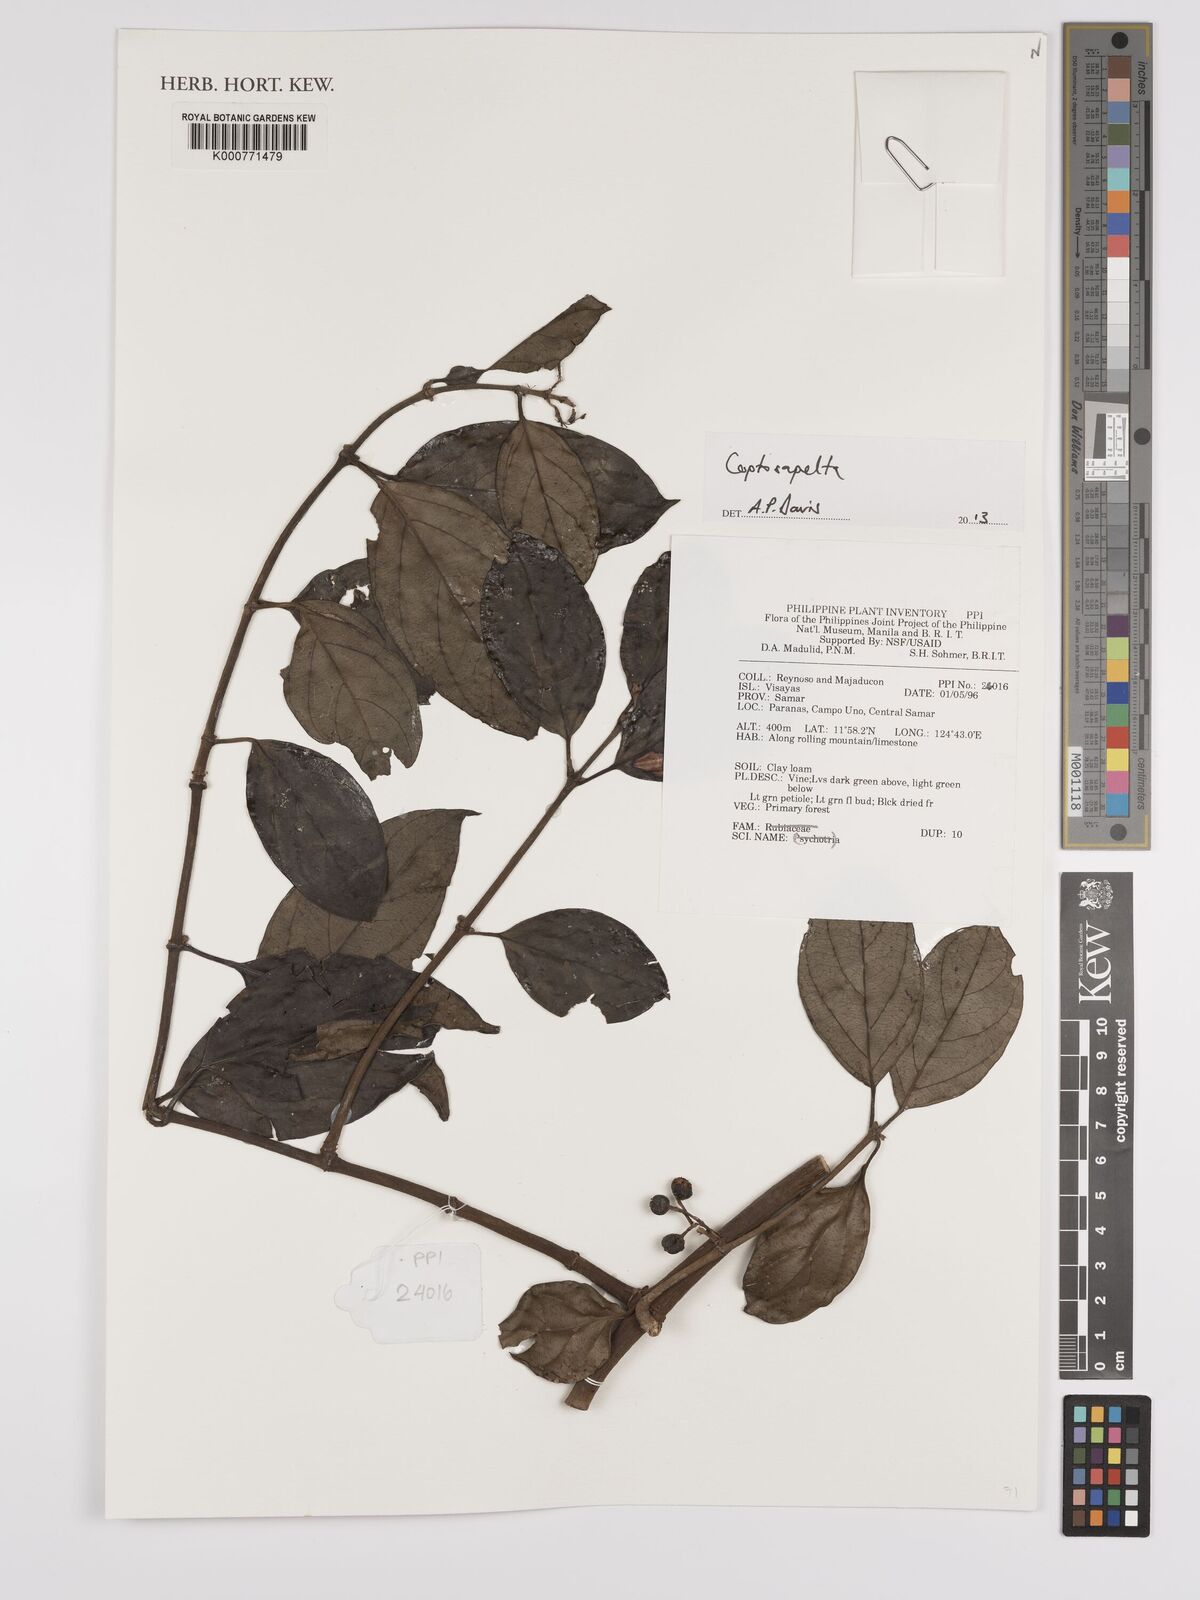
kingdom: Plantae
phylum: Tracheophyta
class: Magnoliopsida
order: Gentianales
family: Rubiaceae
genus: Coptosapelta
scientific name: Coptosapelta
